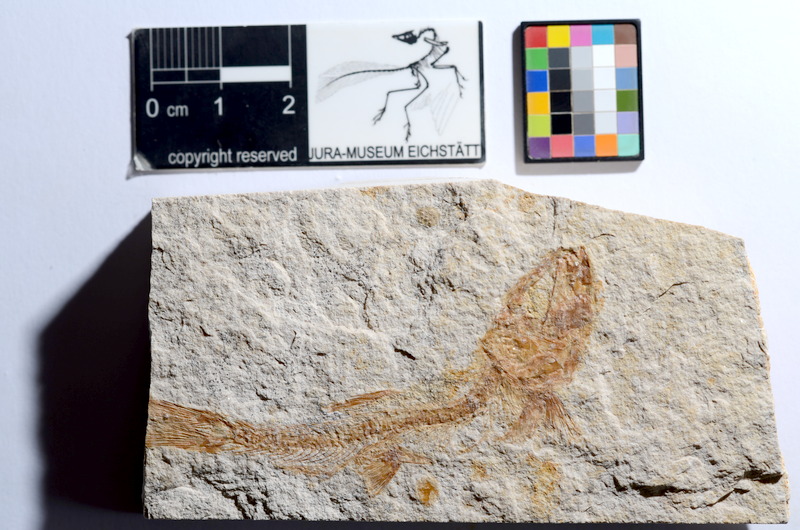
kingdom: Animalia
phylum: Chordata
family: Ascalaboidae
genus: Tharsis
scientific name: Tharsis dubius
